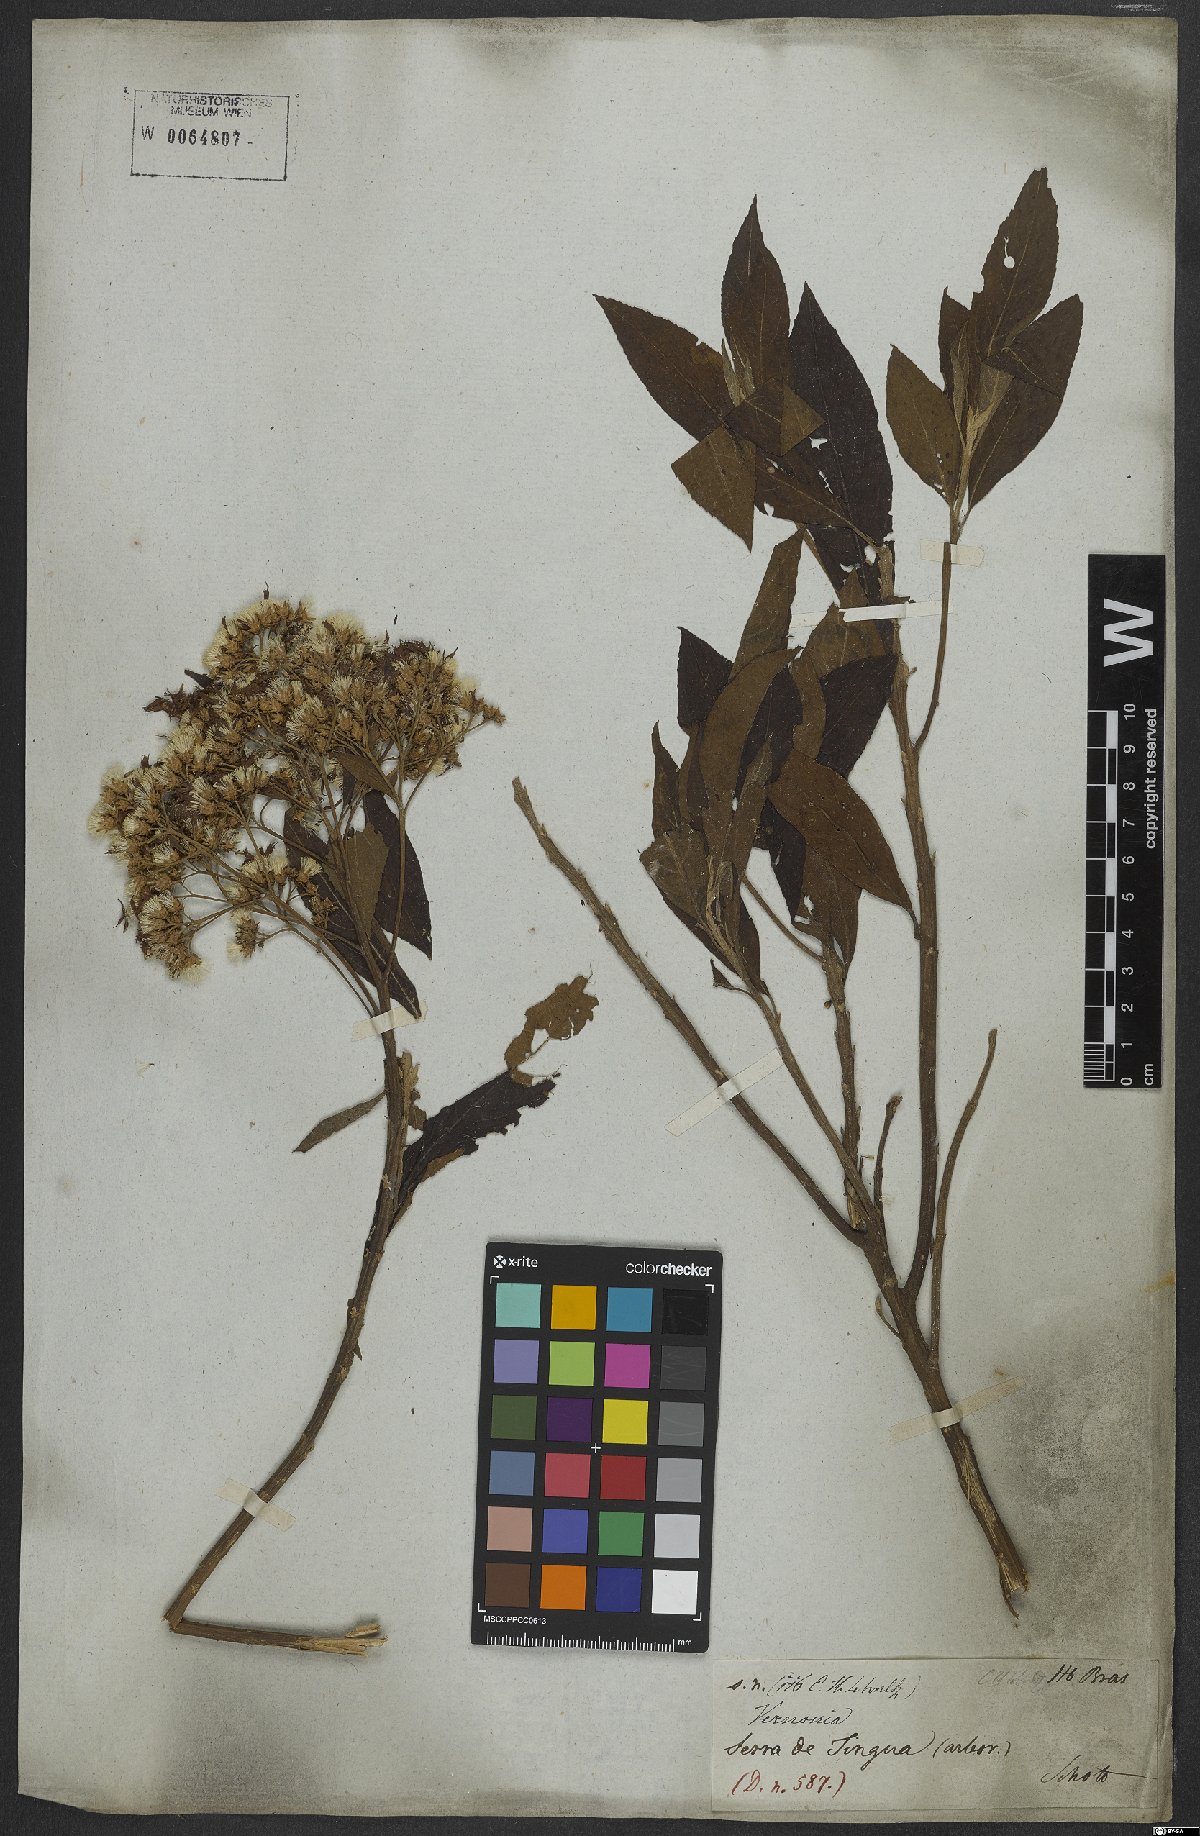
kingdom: Plantae
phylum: Tracheophyta
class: Magnoliopsida
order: Asterales
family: Asteraceae
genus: Cyrtocymura
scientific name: Cyrtocymura scorpioides
